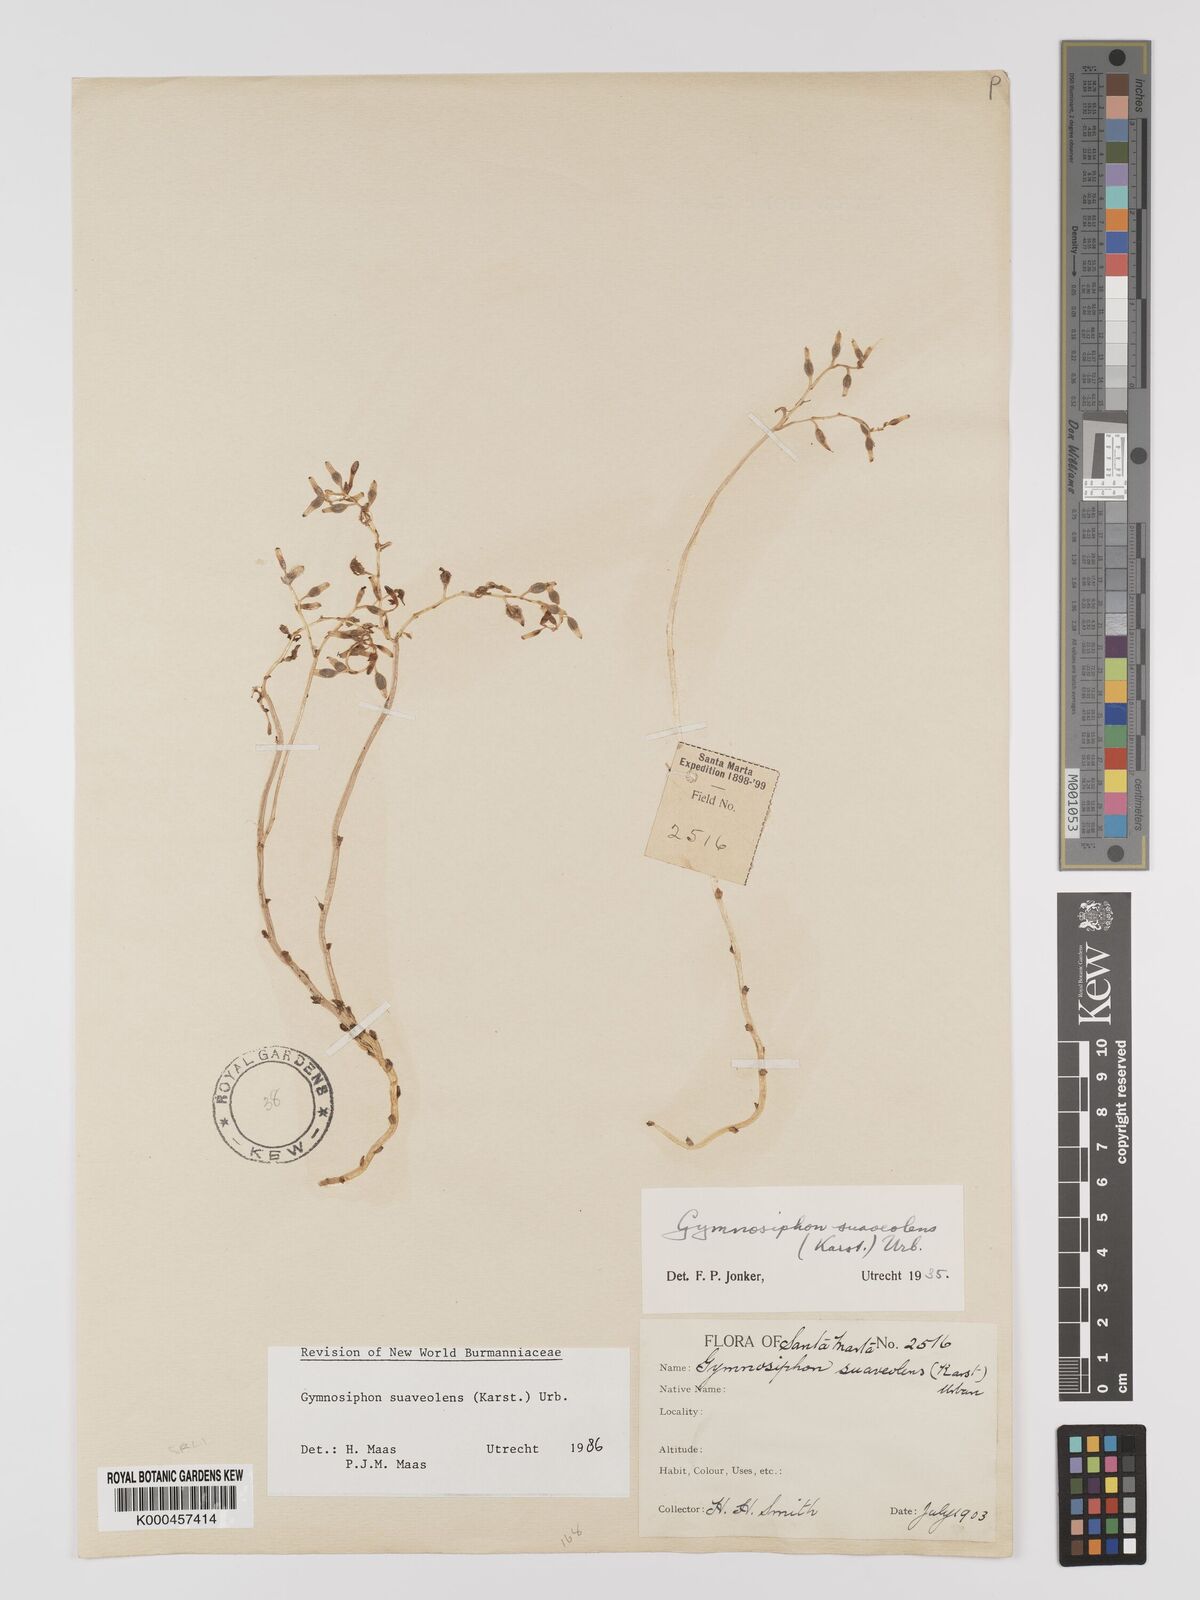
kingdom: Plantae
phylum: Tracheophyta
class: Liliopsida
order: Dioscoreales
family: Burmanniaceae
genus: Gymnosiphon
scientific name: Gymnosiphon suaveolens
